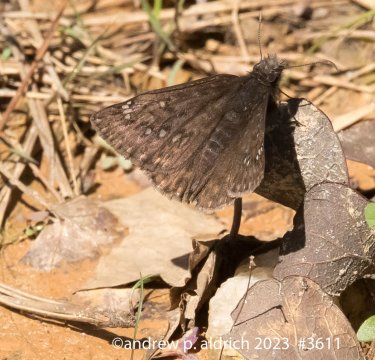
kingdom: Animalia
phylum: Arthropoda
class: Insecta
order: Lepidoptera
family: Hesperiidae
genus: Erynnis
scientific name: Erynnis
